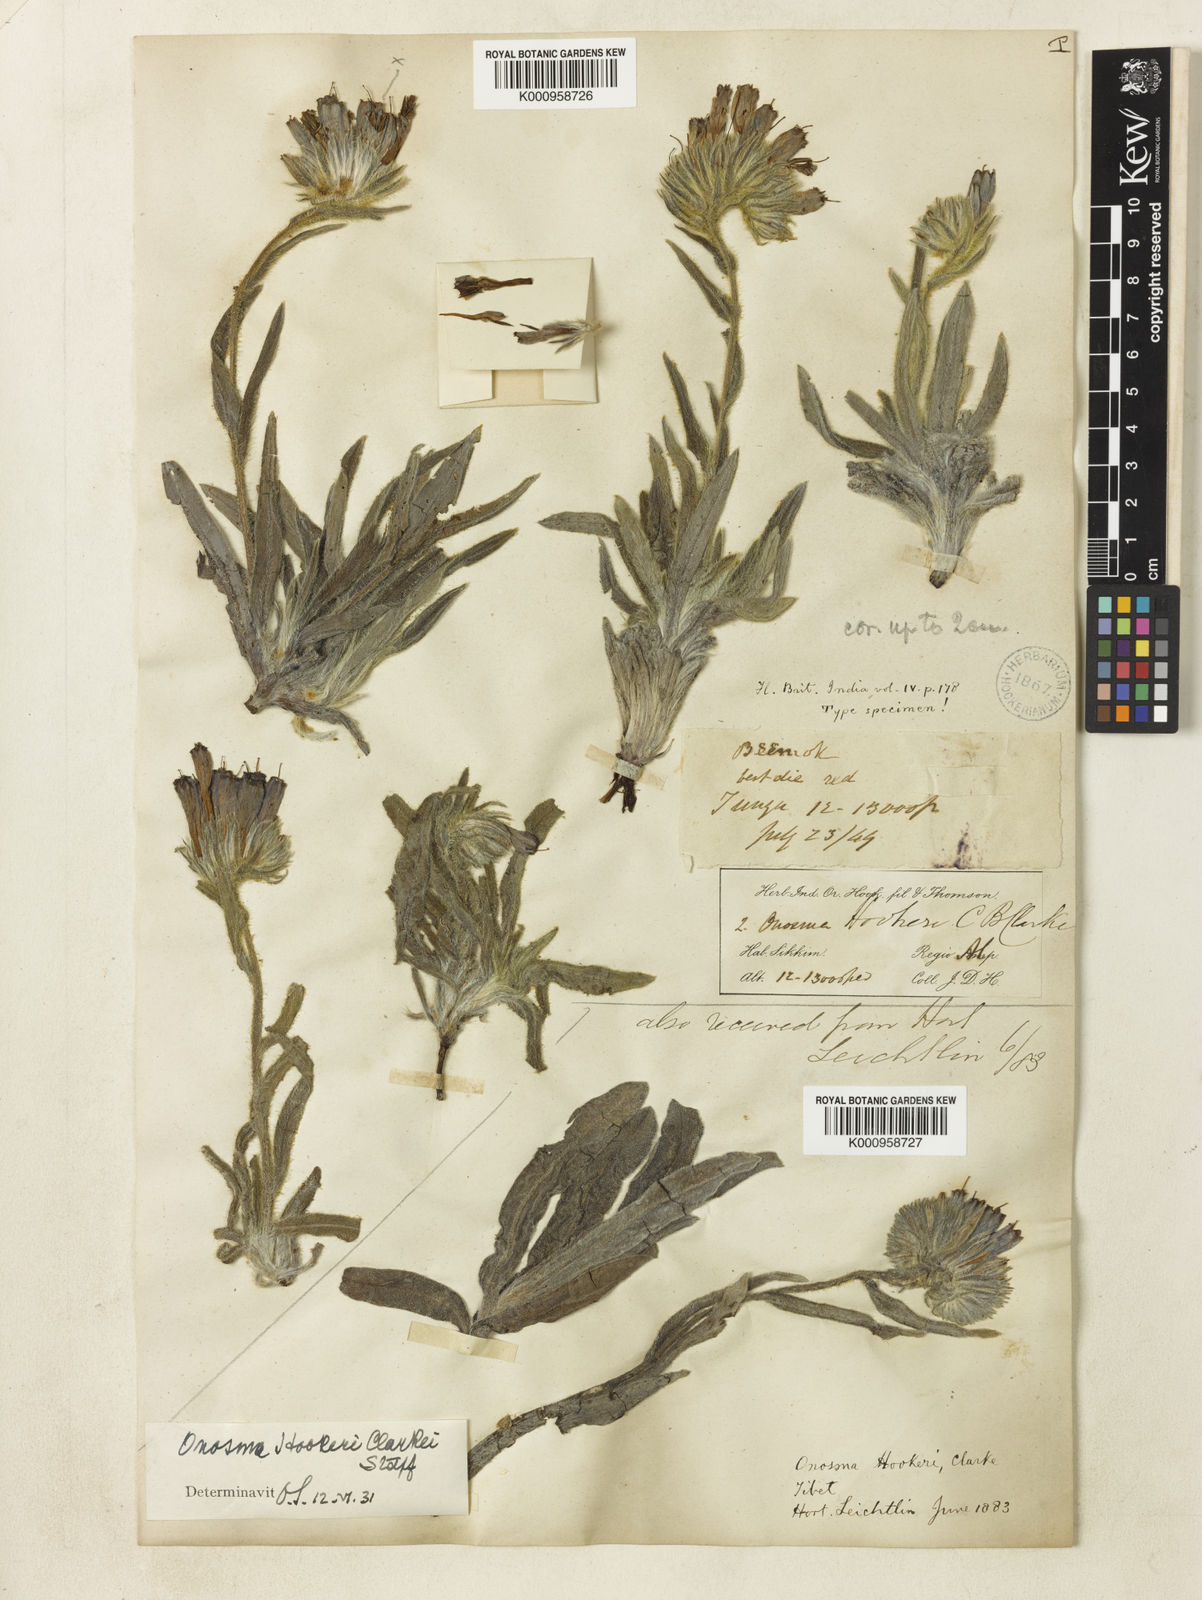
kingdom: Plantae
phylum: Tracheophyta
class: Magnoliopsida
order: Boraginales
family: Boraginaceae
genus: Maharanga
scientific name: Maharanga hookeri
